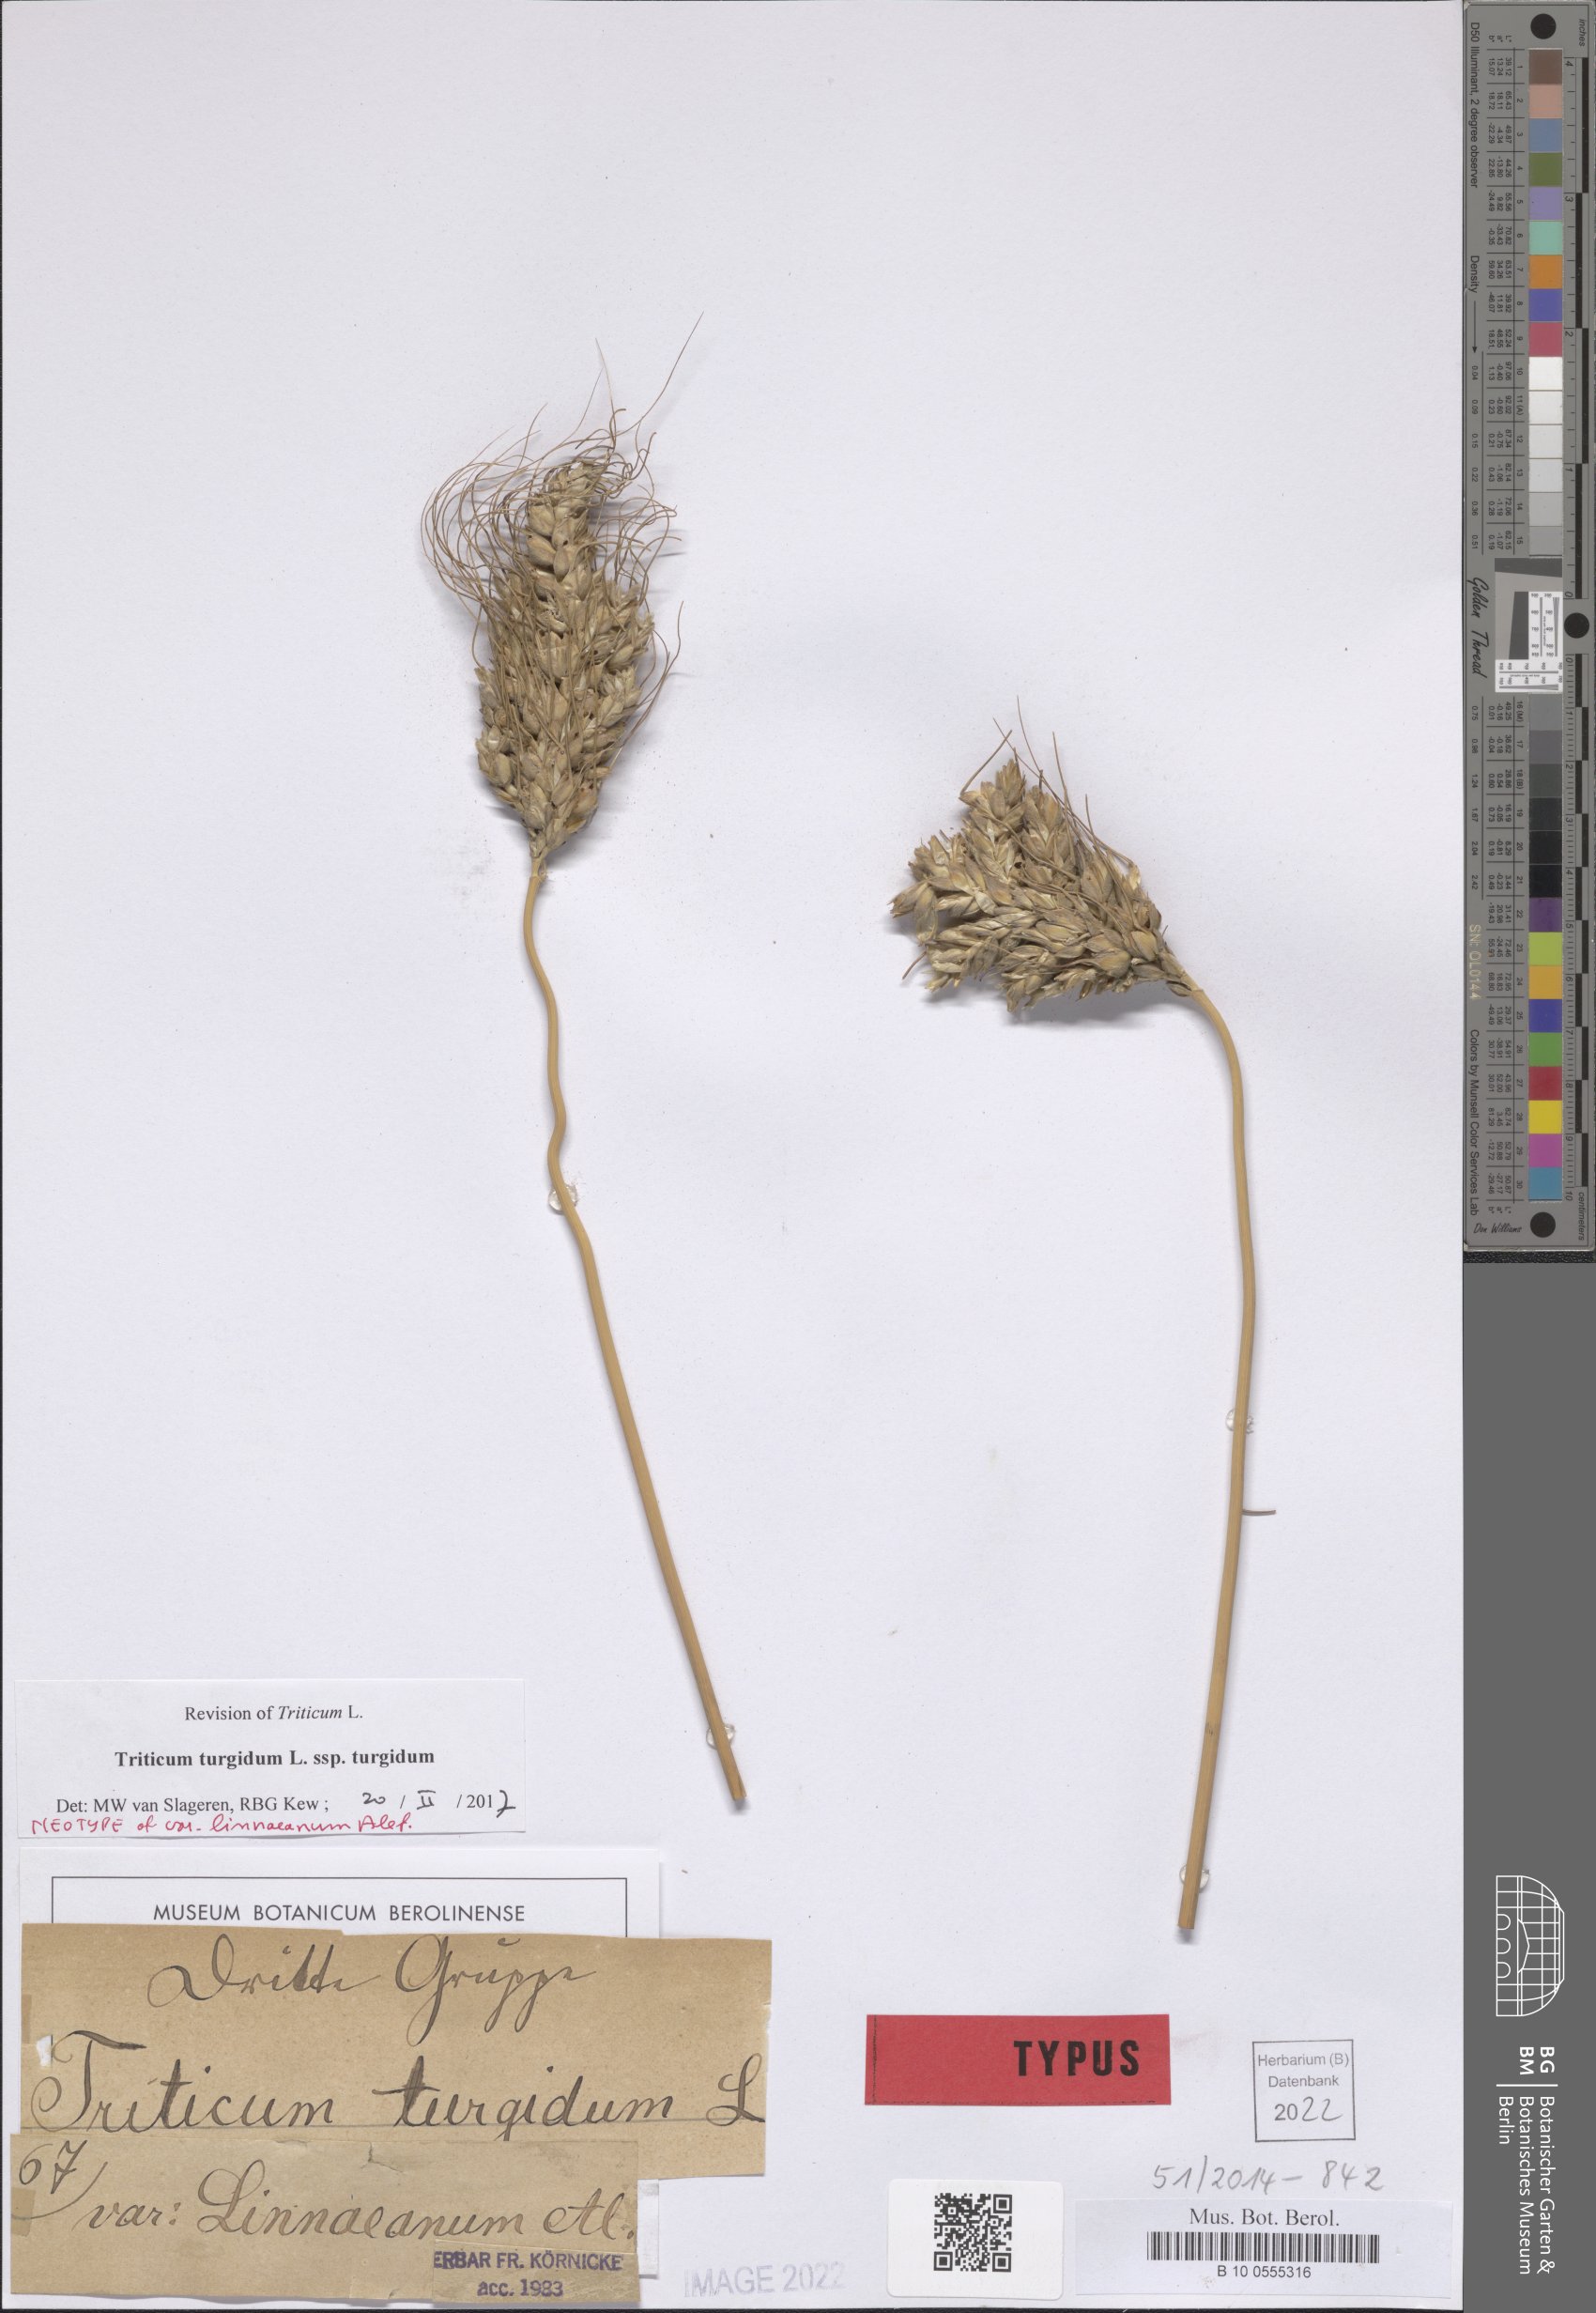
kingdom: Plantae
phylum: Tracheophyta
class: Liliopsida
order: Poales
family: Poaceae
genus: Triticum
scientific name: Triticum turgidum
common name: Rivet wheat
